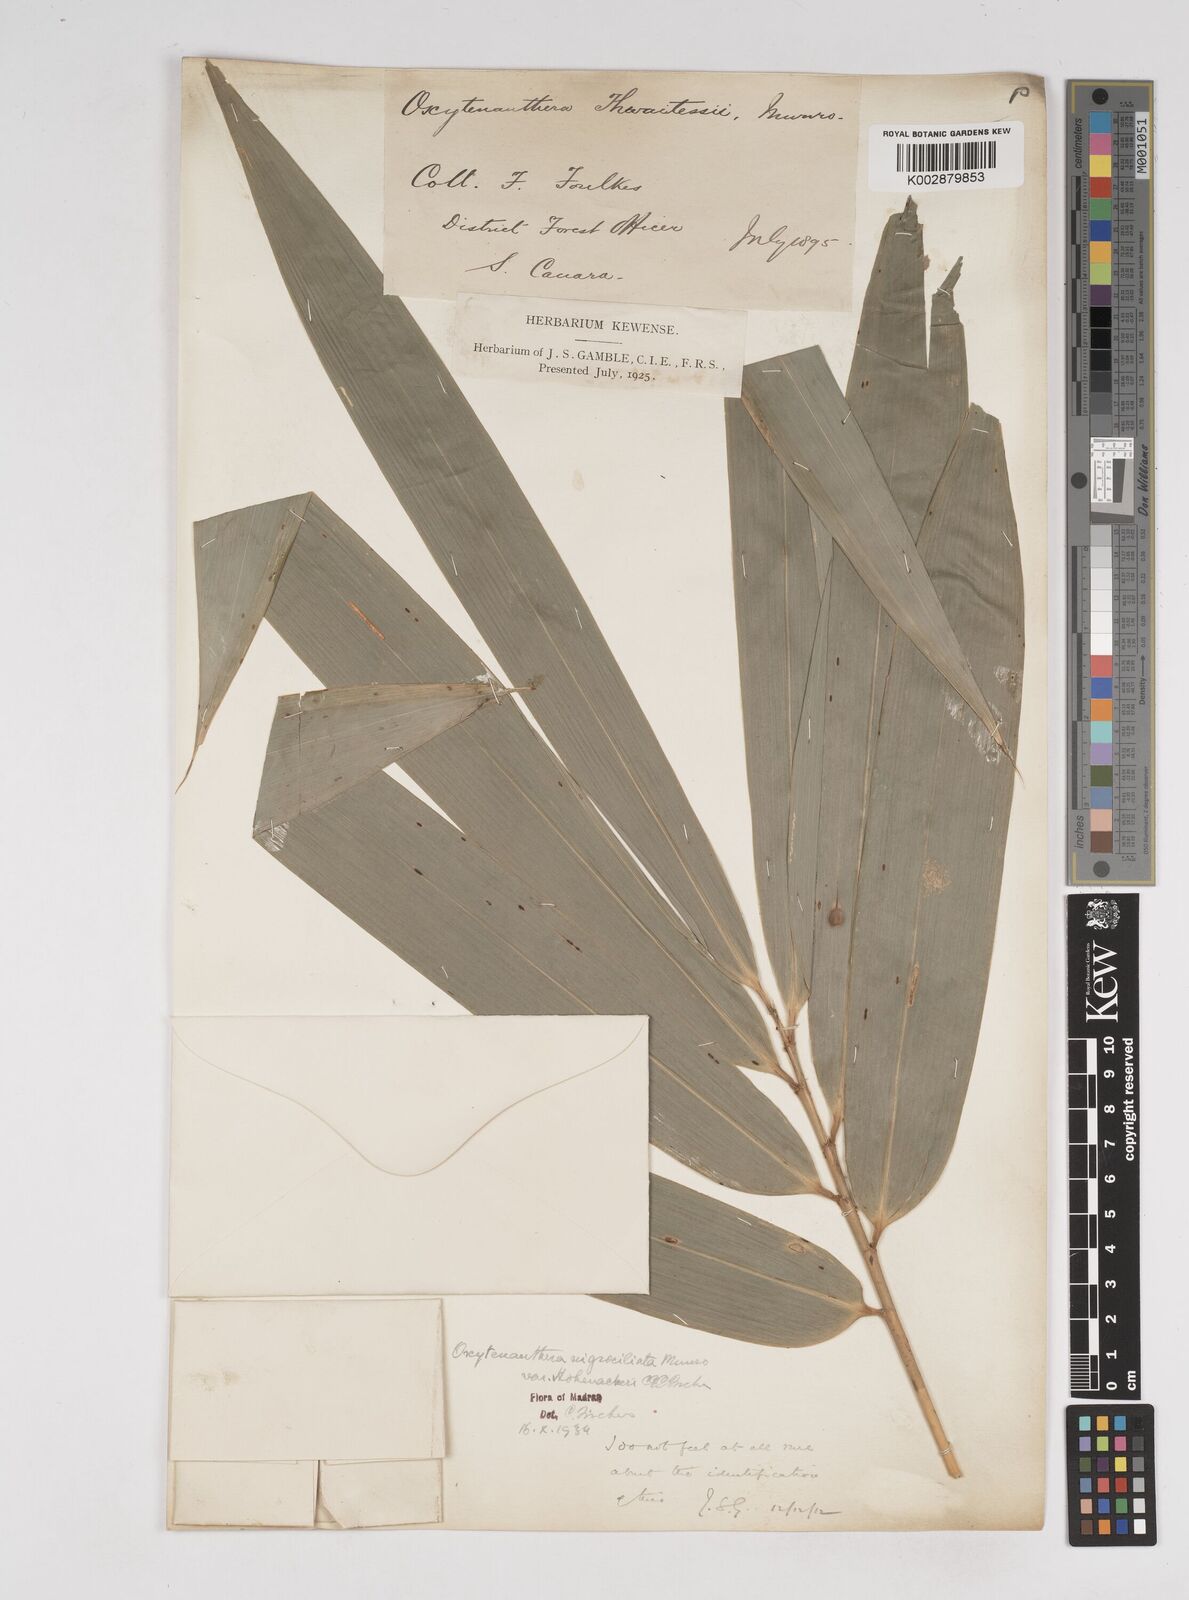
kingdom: Plantae
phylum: Tracheophyta
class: Liliopsida
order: Poales
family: Poaceae
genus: Gigantochloa
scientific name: Gigantochloa latifolia
